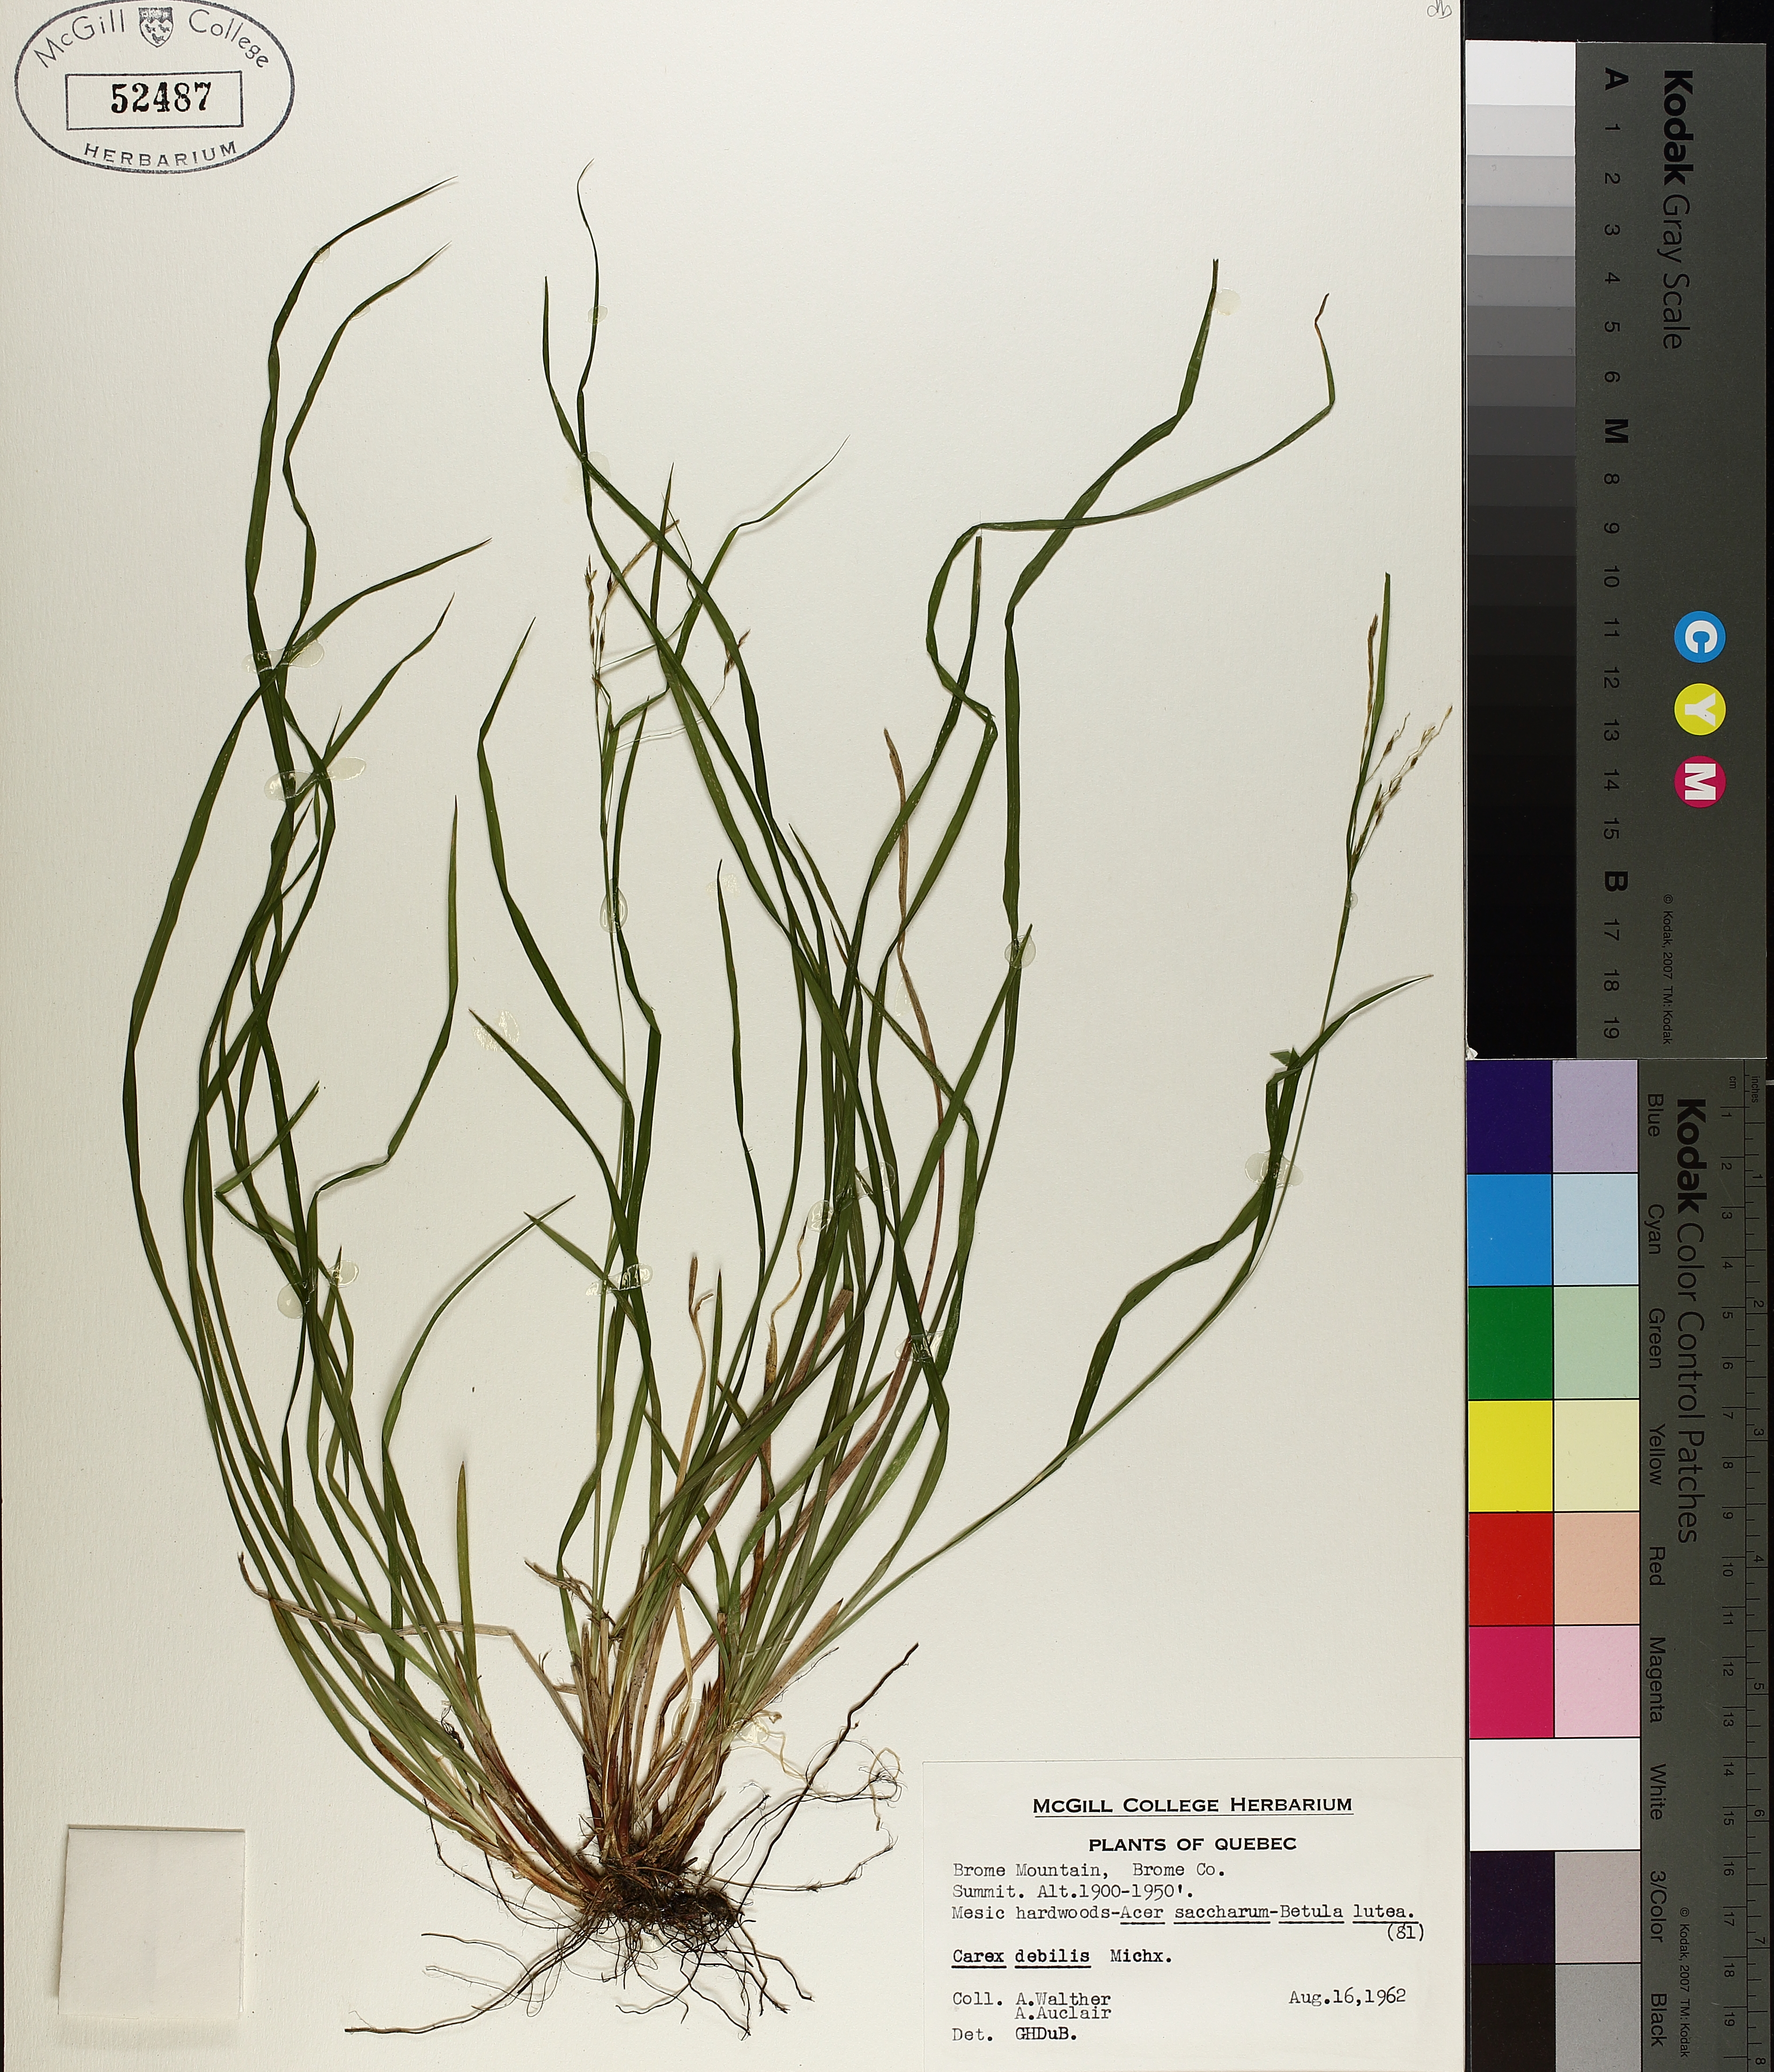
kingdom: Plantae
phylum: Tracheophyta
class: Liliopsida
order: Poales
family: Cyperaceae
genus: Carex
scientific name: Carex debilis
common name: White-edge sedge
